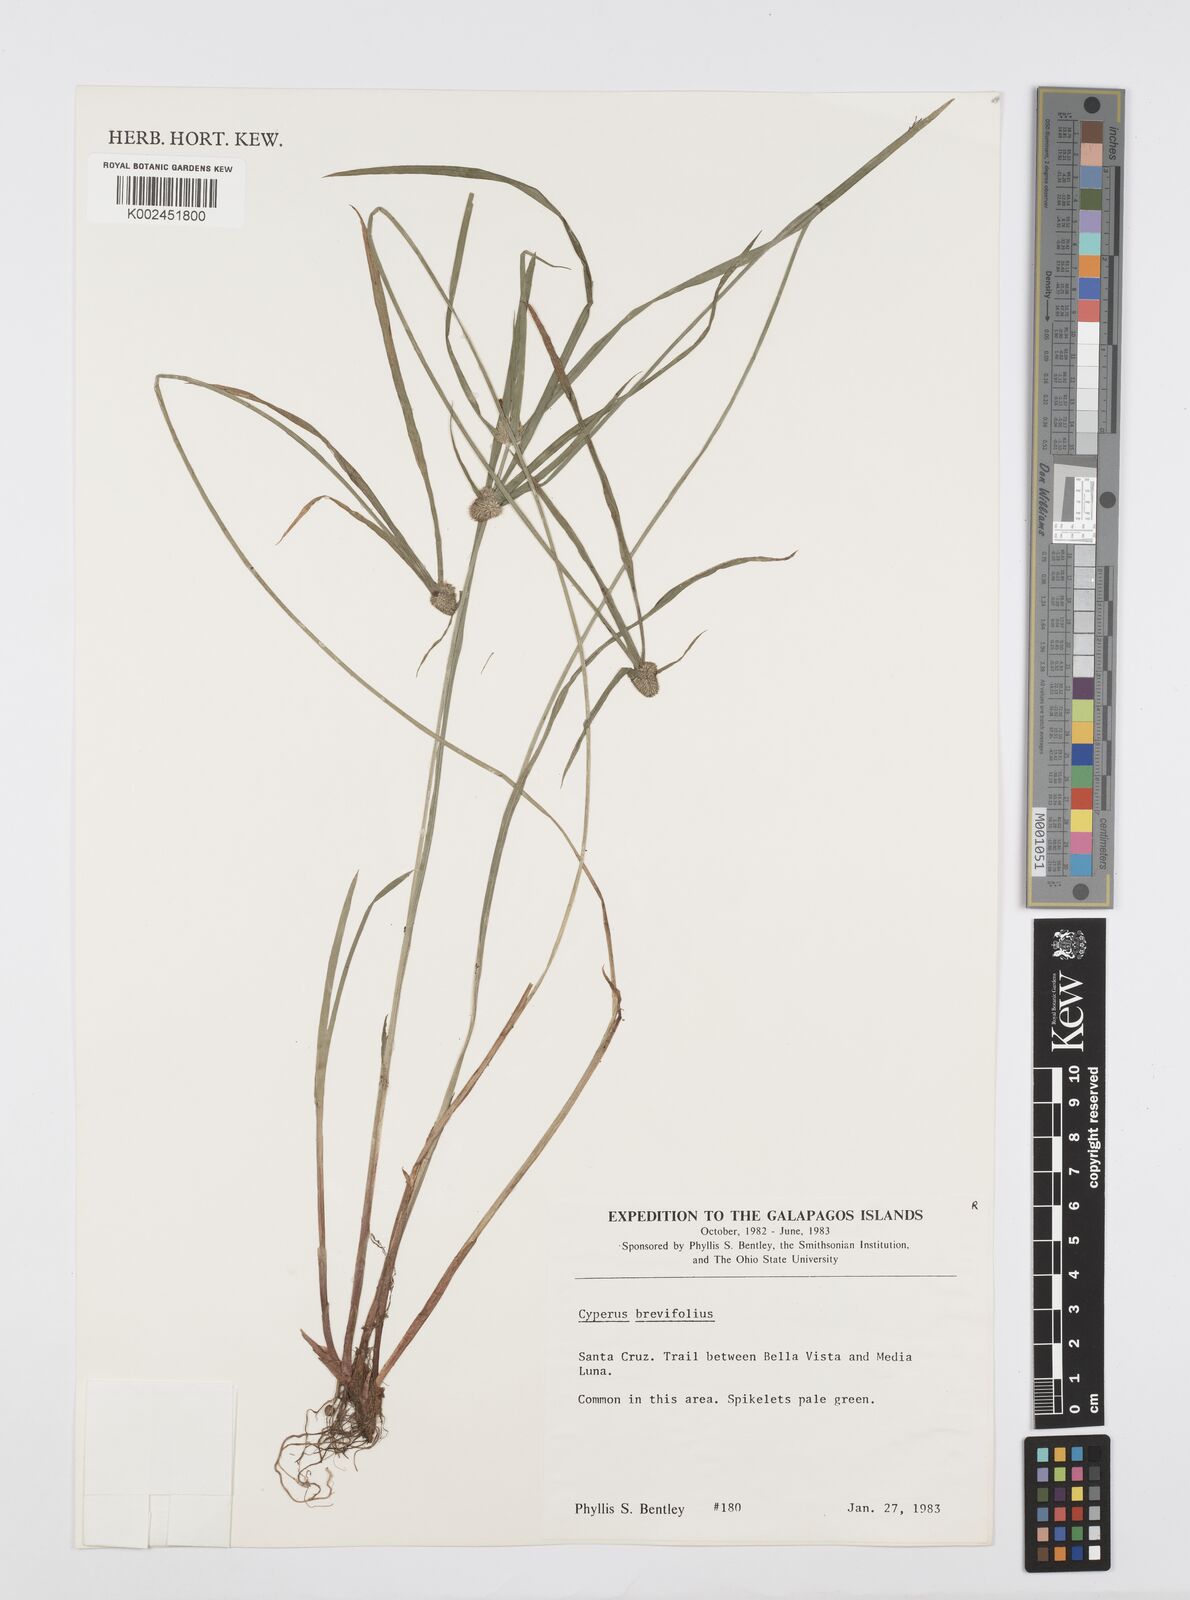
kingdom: Plantae
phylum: Tracheophyta
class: Liliopsida
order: Poales
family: Cyperaceae
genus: Cyperus
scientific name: Cyperus brevifolius
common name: Globe kyllinga
